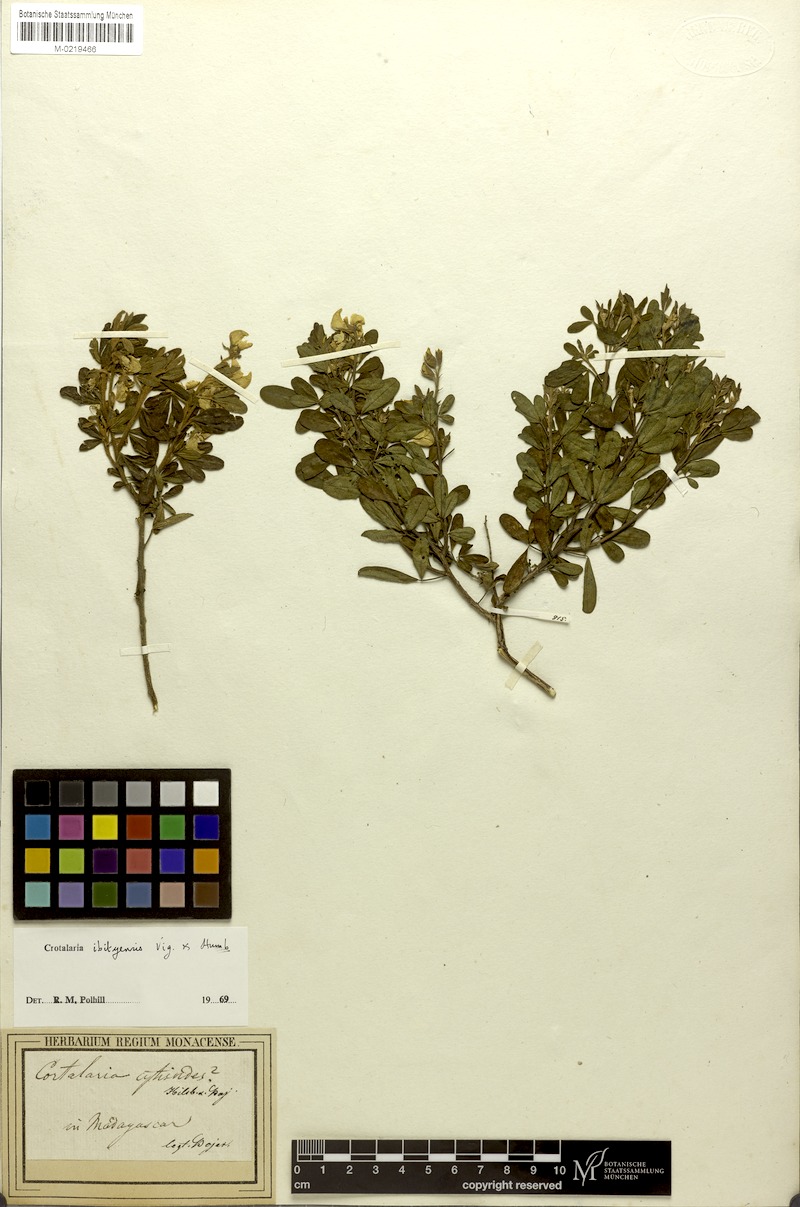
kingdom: Plantae
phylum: Tracheophyta
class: Magnoliopsida
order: Fabales
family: Fabaceae
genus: Crotalaria
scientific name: Crotalaria ibityensis
